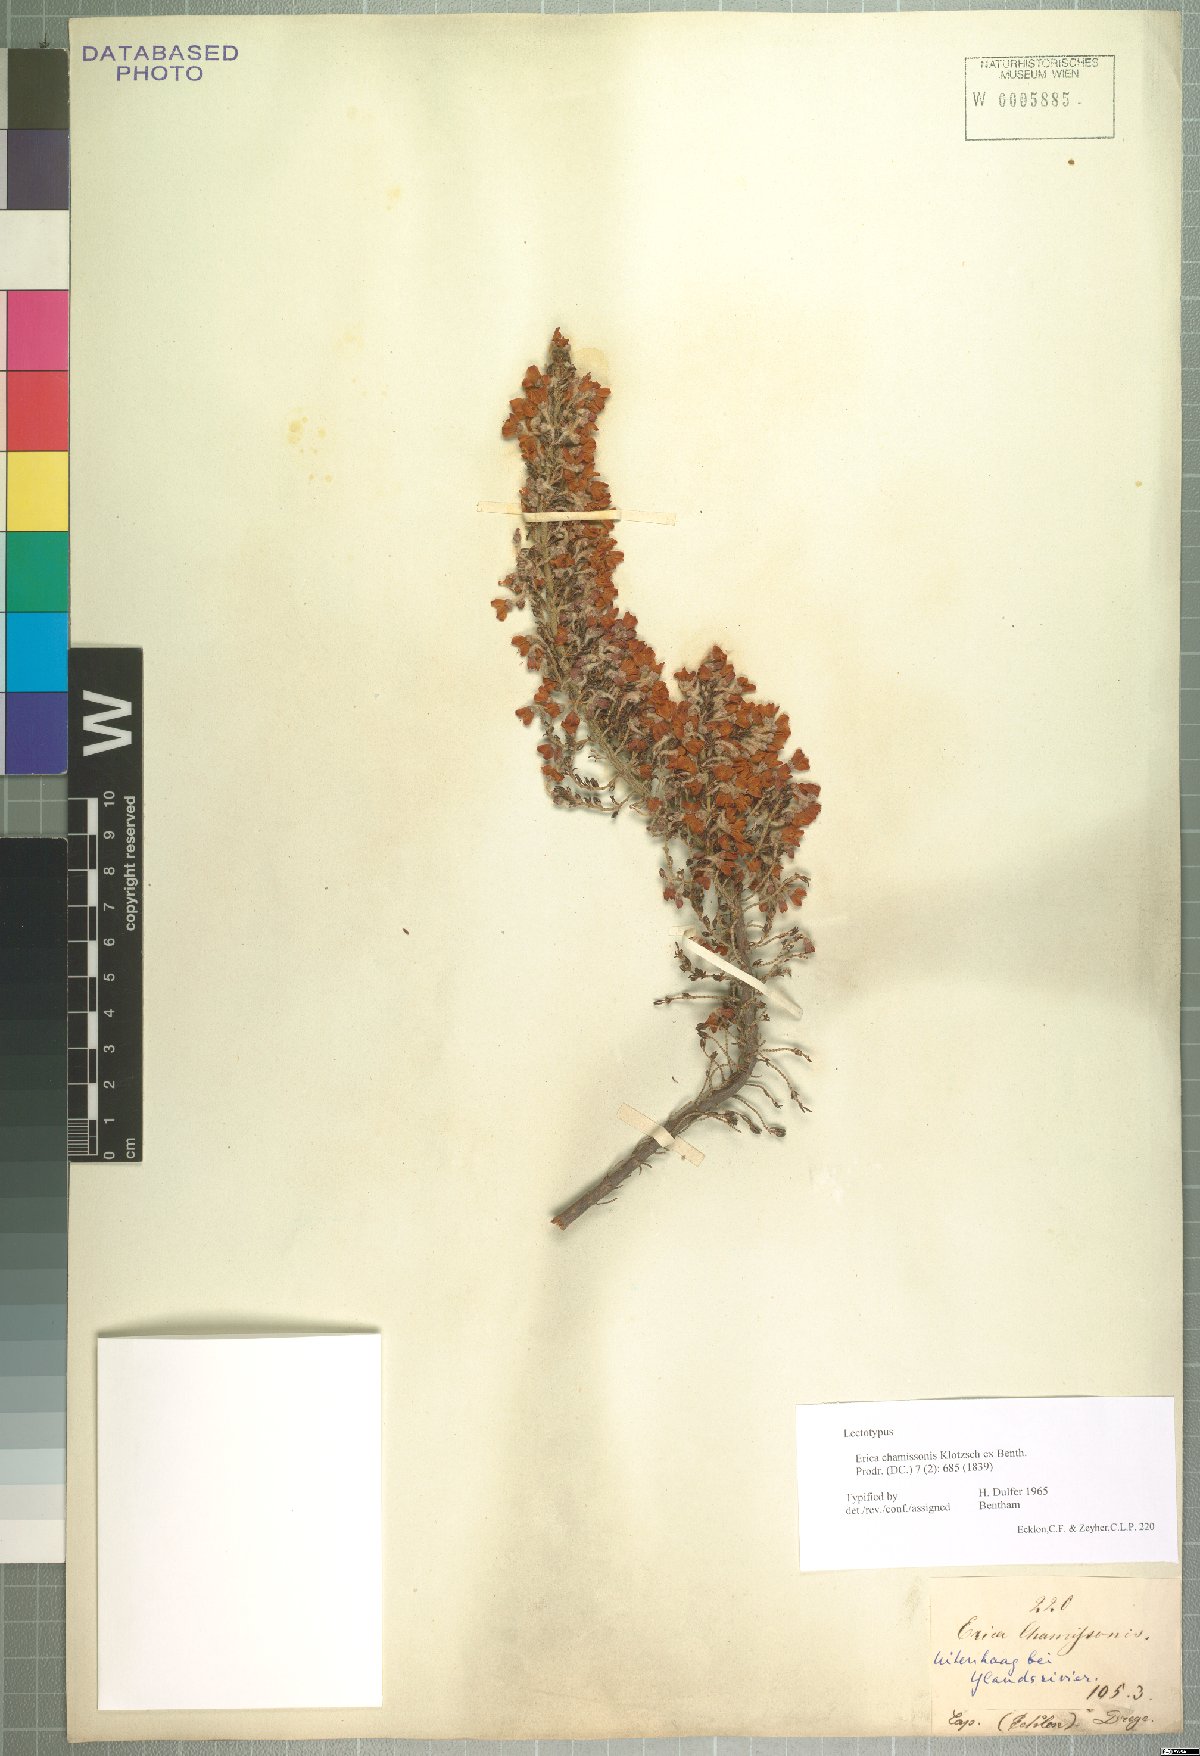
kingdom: Plantae
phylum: Tracheophyta
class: Magnoliopsida
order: Ericales
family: Ericaceae
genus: Erica
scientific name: Erica chamissonis
